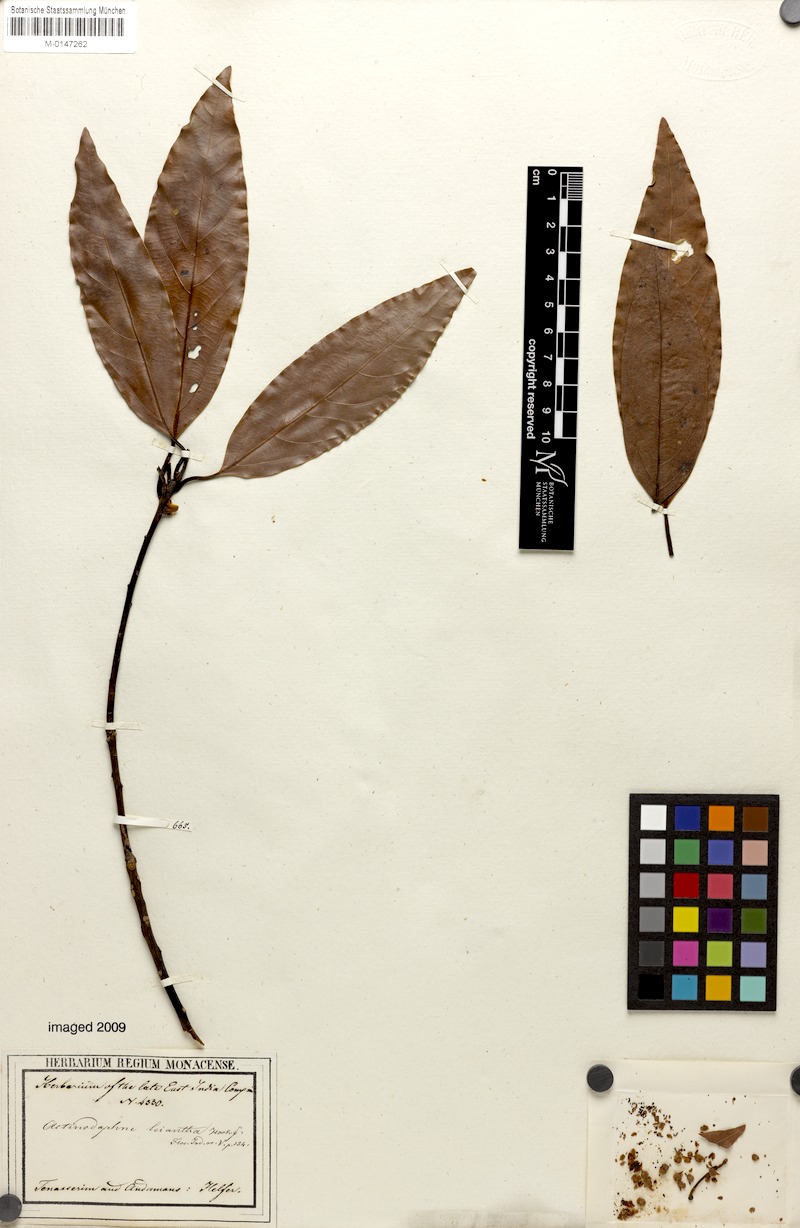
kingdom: Plantae
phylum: Tracheophyta
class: Magnoliopsida
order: Laurales
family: Lauraceae
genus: Actinodaphne
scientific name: Actinodaphne leiophylla
